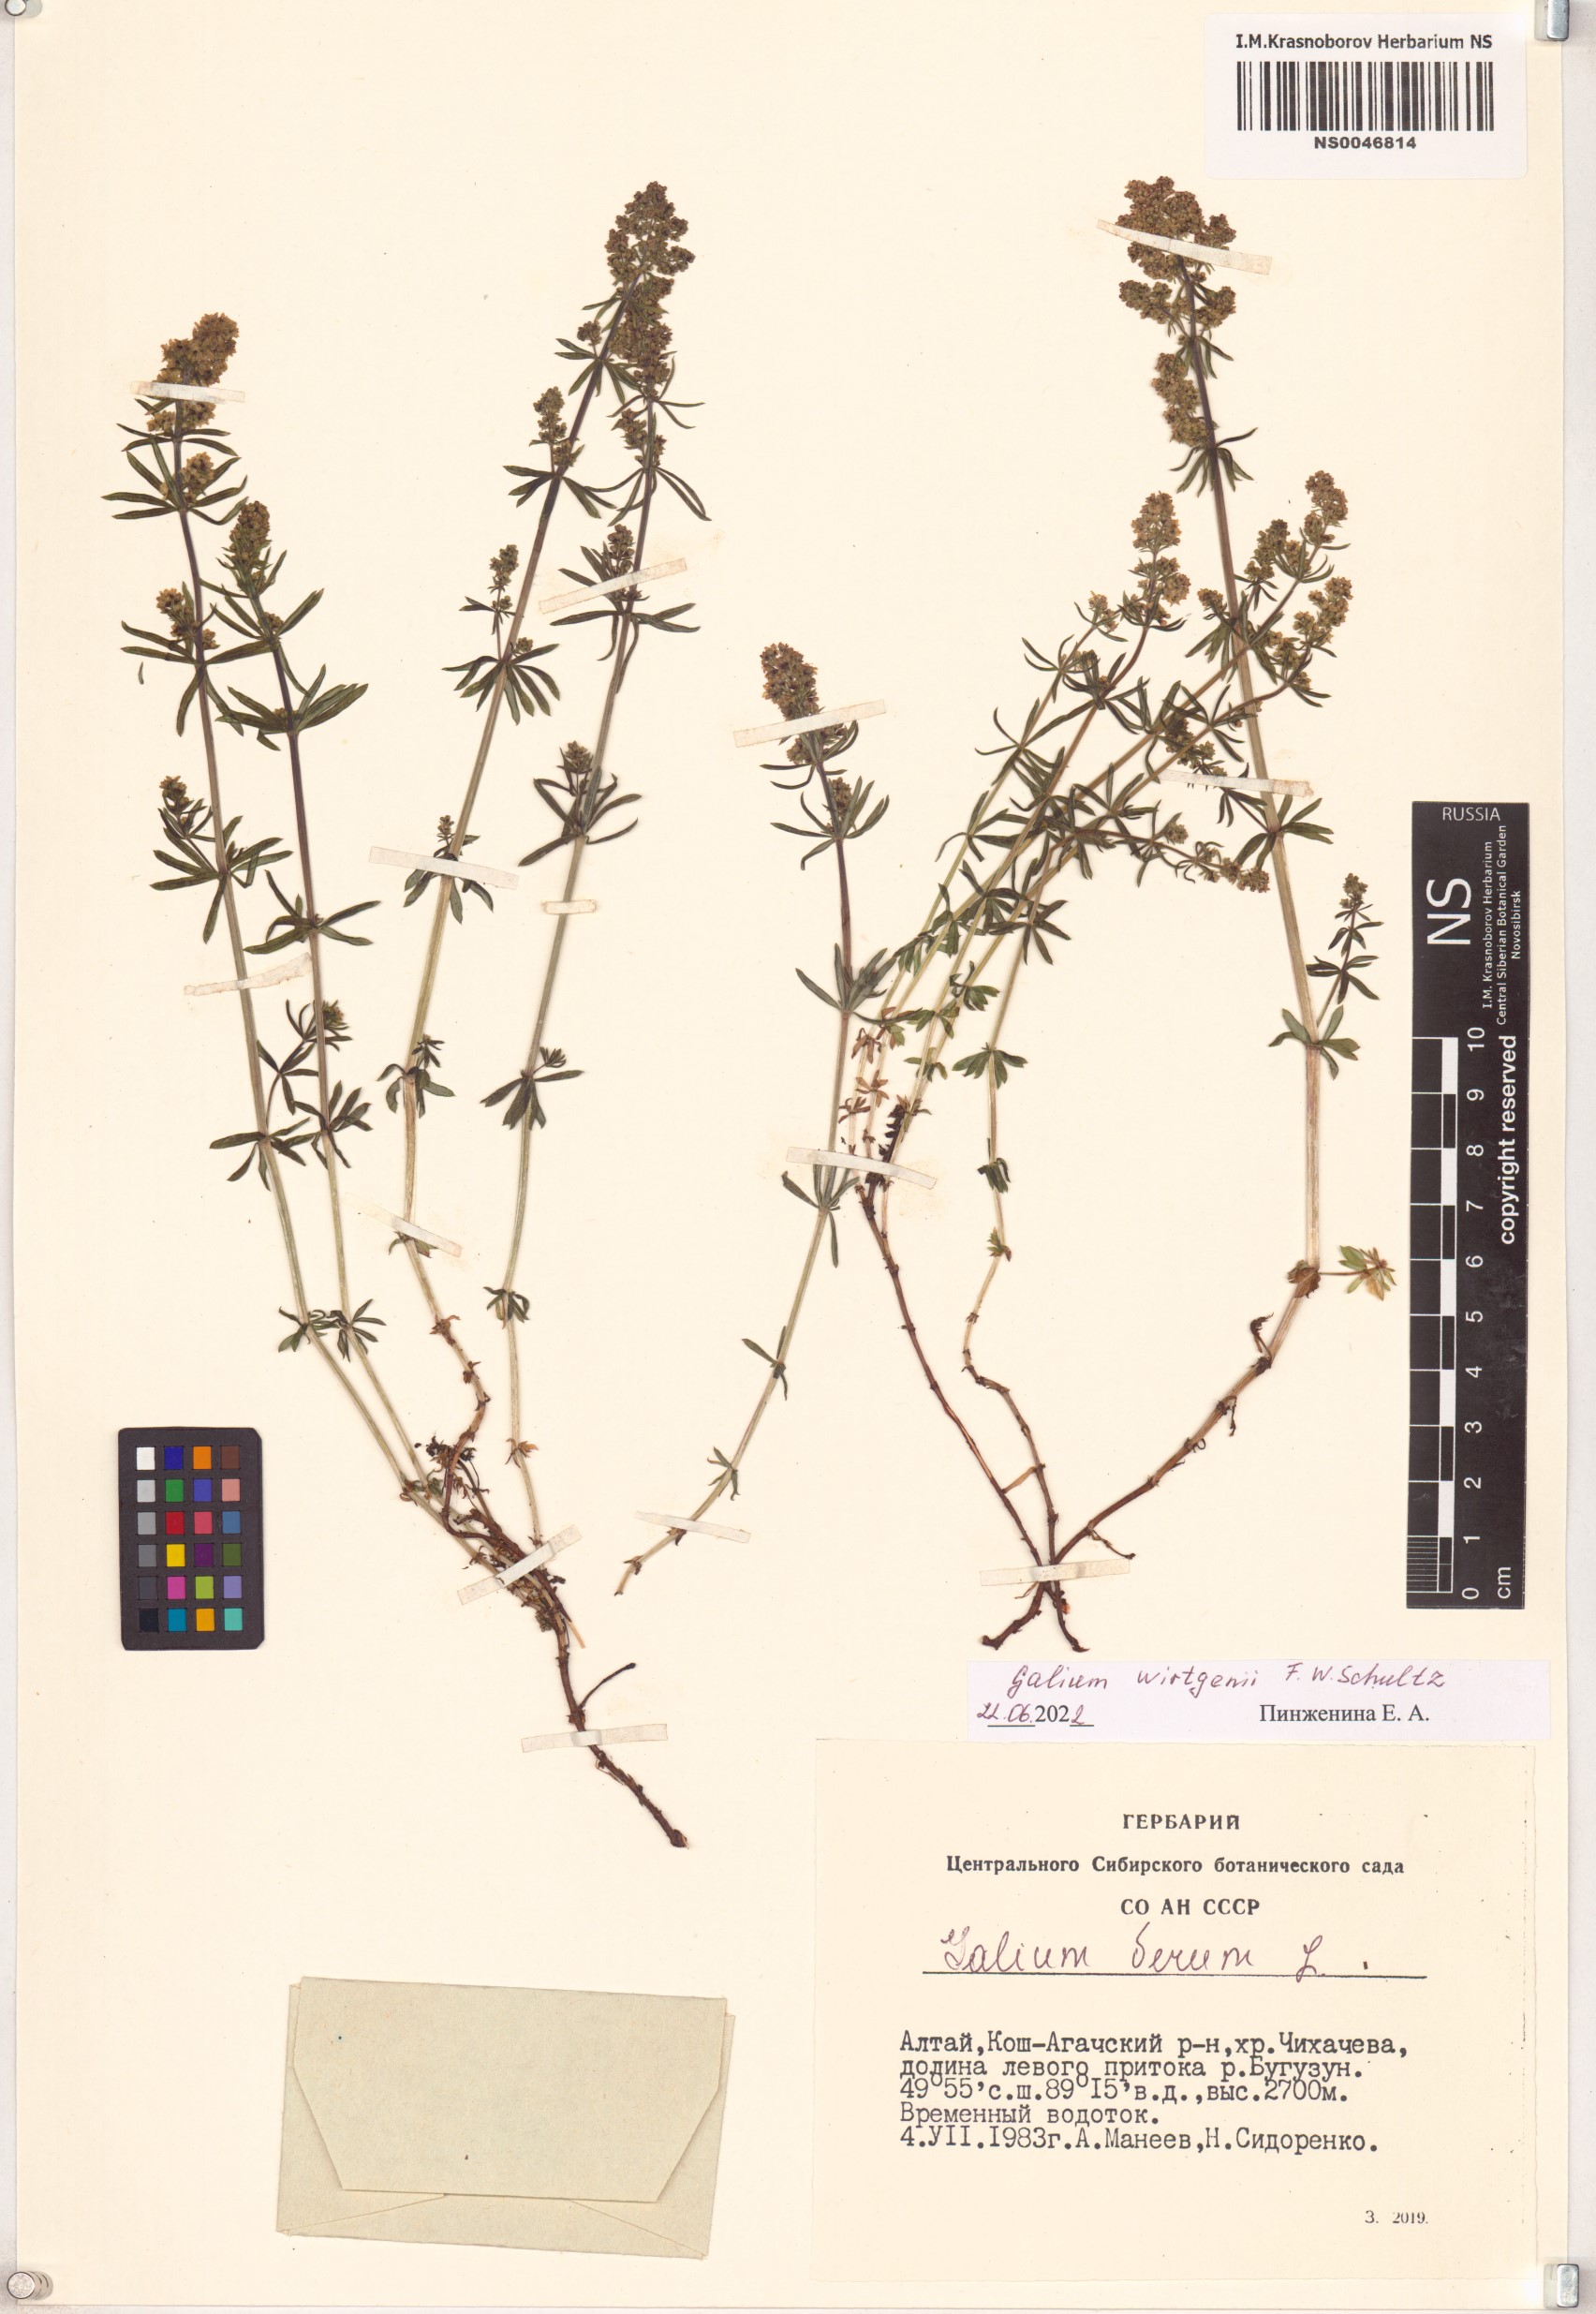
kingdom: Plantae
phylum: Tracheophyta
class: Magnoliopsida
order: Gentianales
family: Rubiaceae
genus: Galium
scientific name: Galium verum
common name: Lady's bedstraw
